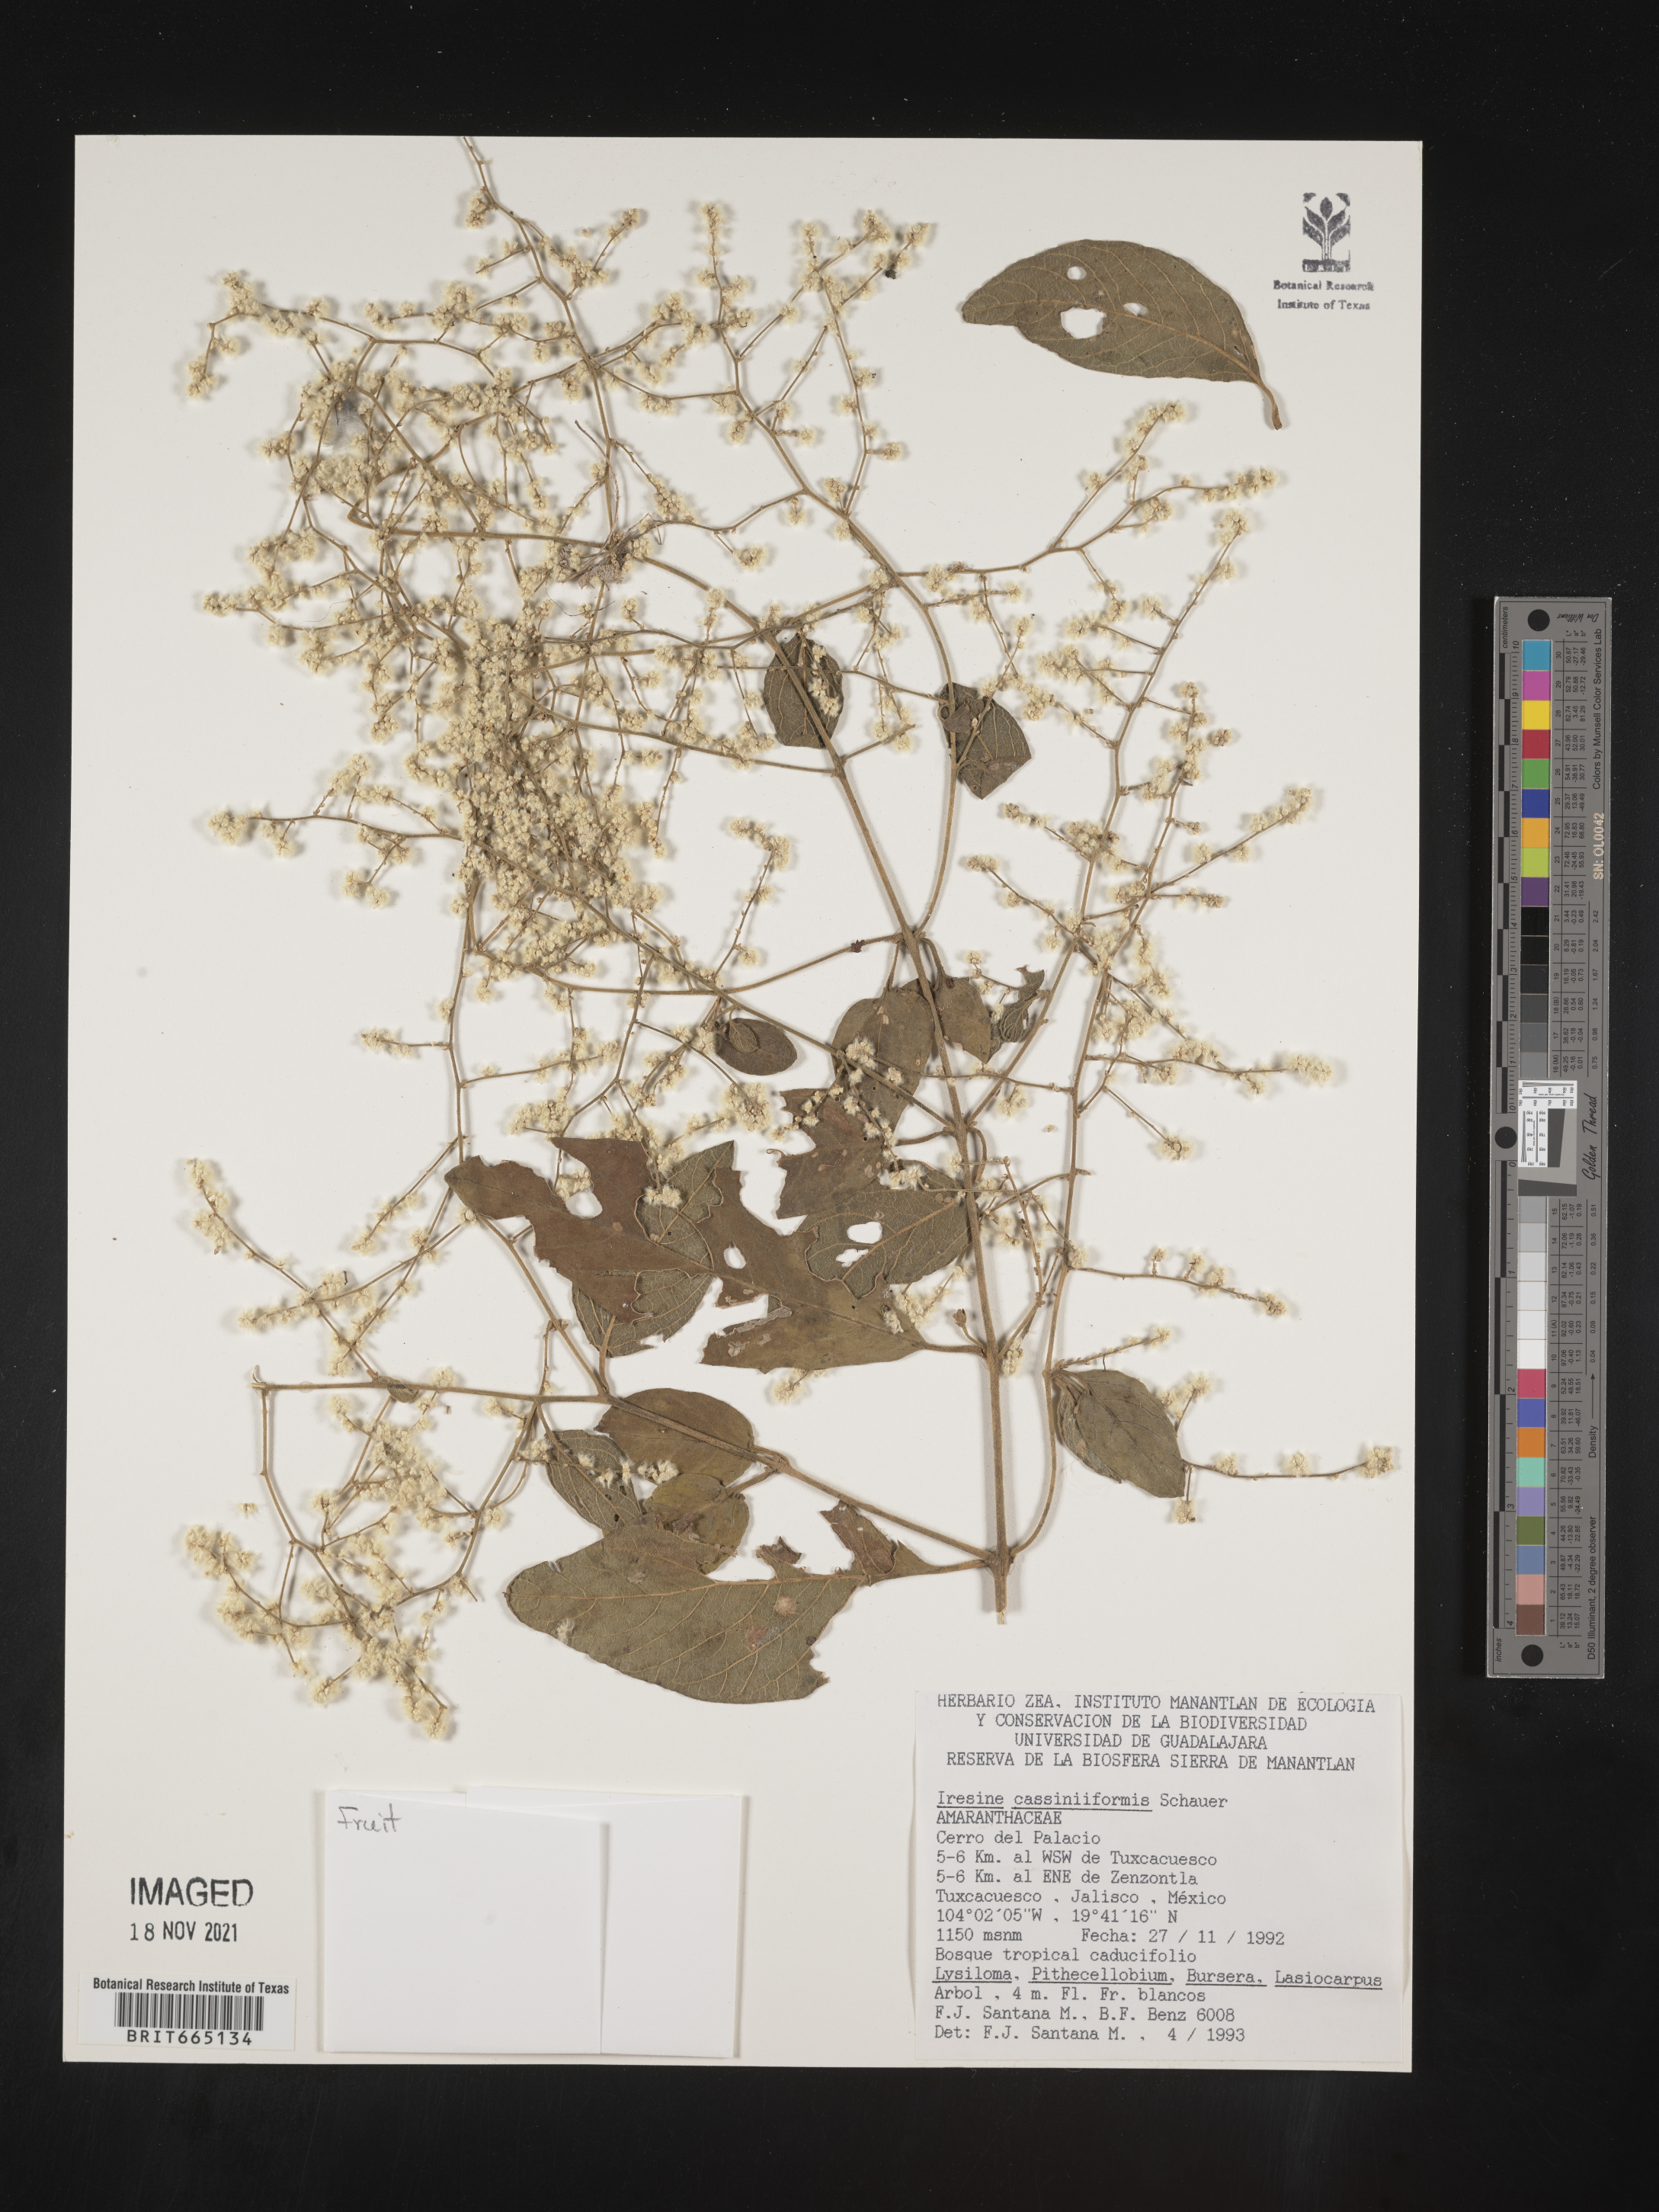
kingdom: Plantae
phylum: Tracheophyta
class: Magnoliopsida
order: Caryophyllales
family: Amaranthaceae
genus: Iresine
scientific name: Iresine
